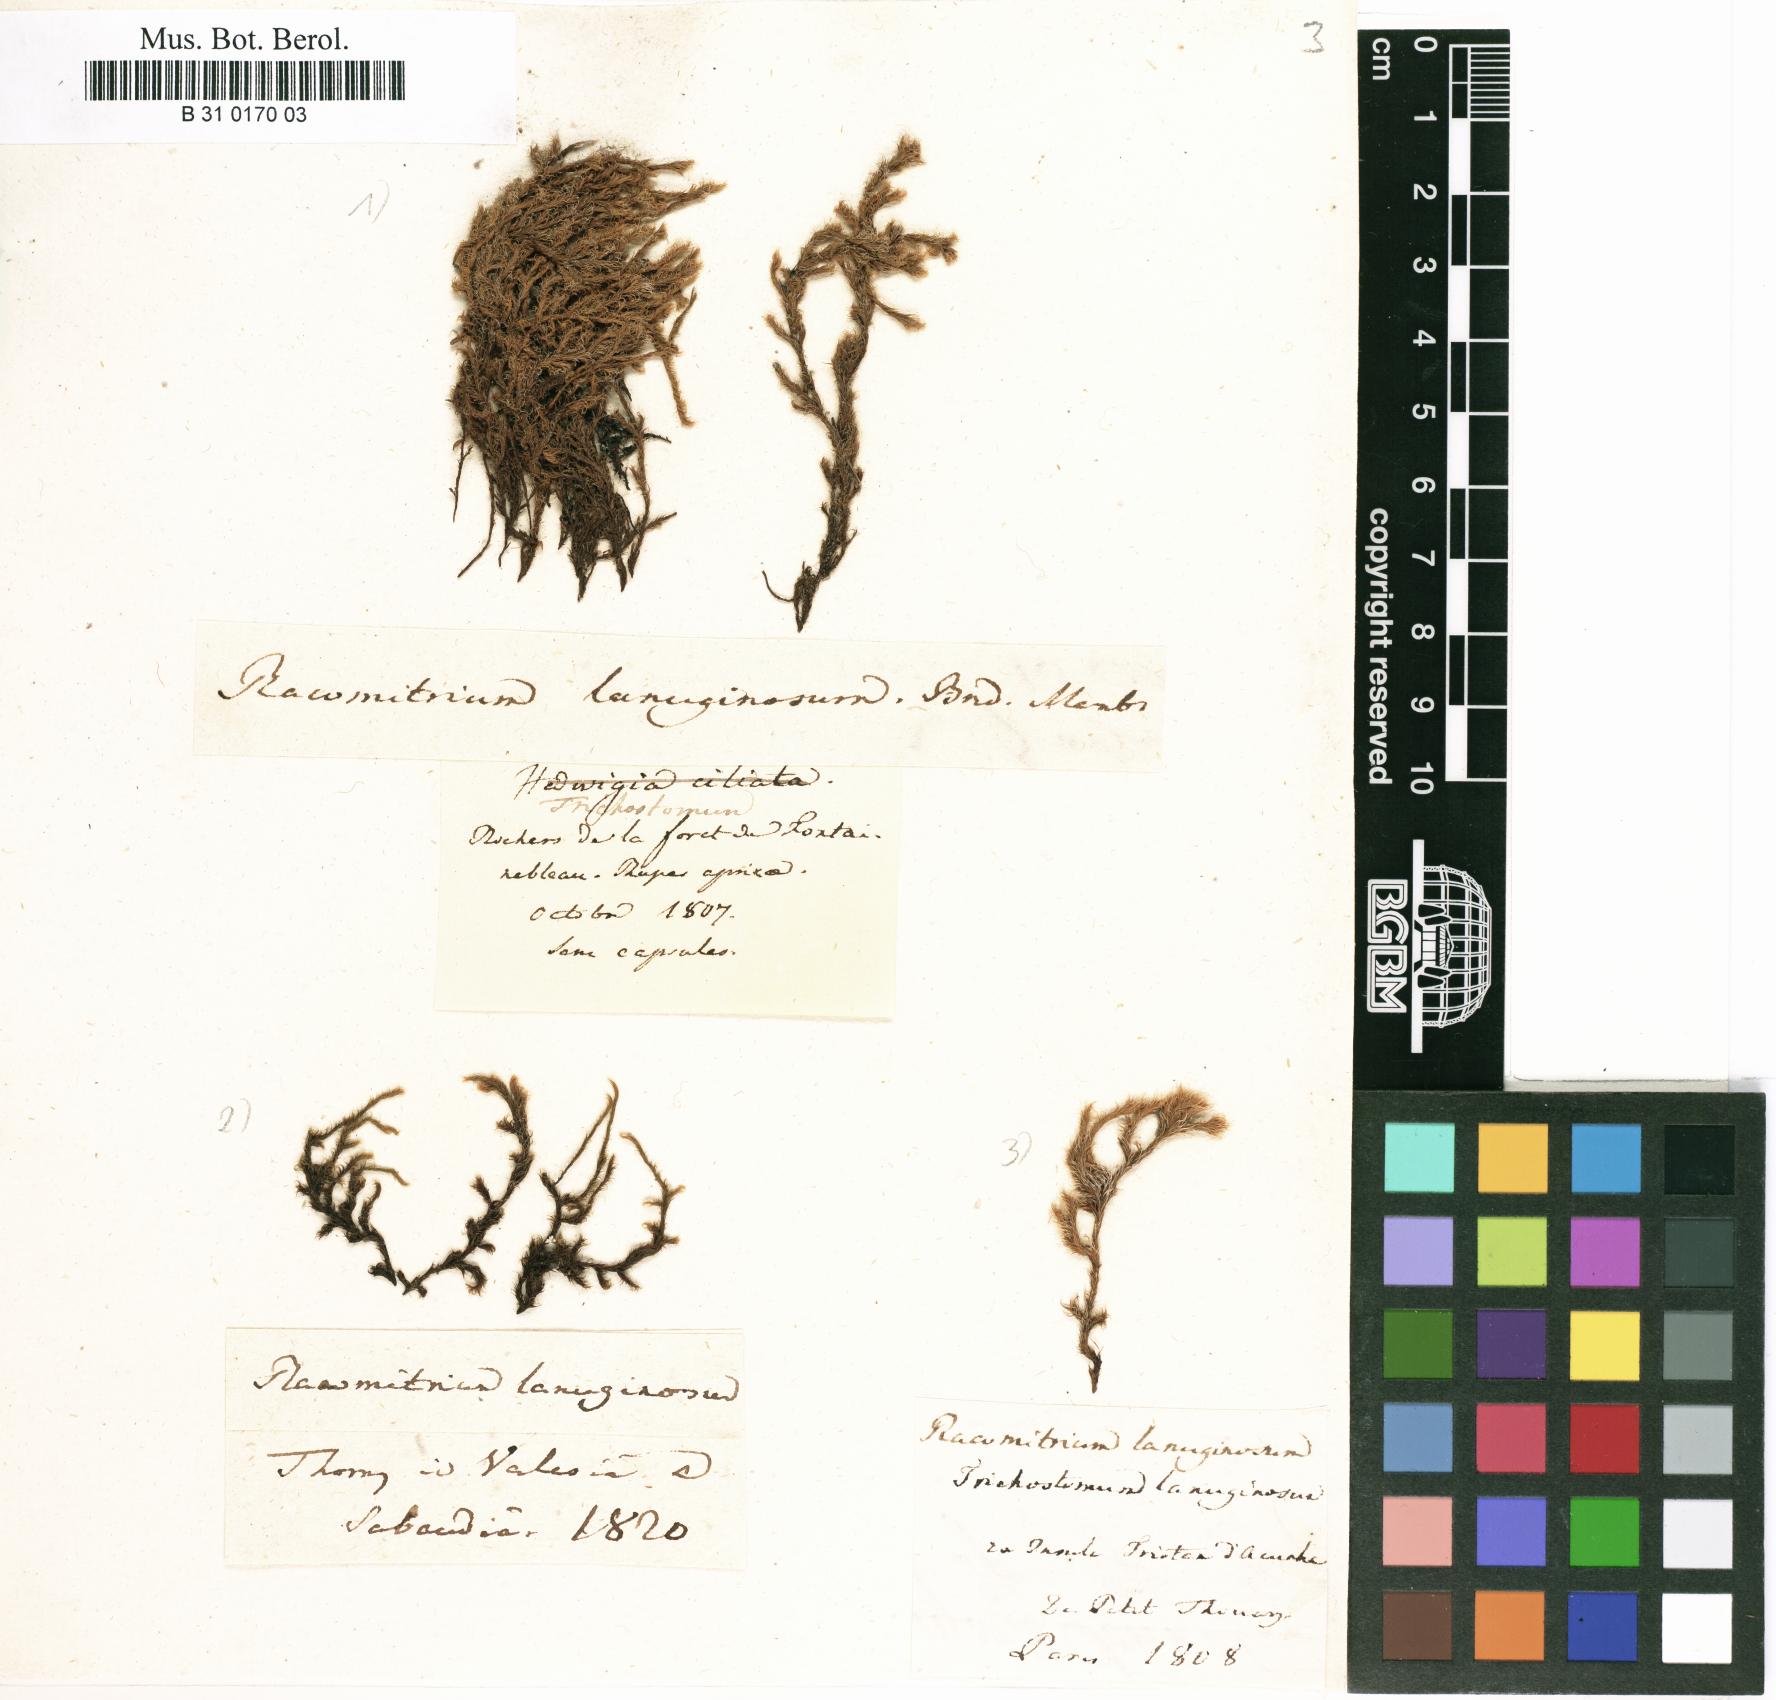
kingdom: Plantae
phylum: Bryophyta
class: Bryopsida
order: Grimmiales
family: Grimmiaceae
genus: Racomitrium
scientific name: Racomitrium lanuginosum
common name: Hoary rock moss
